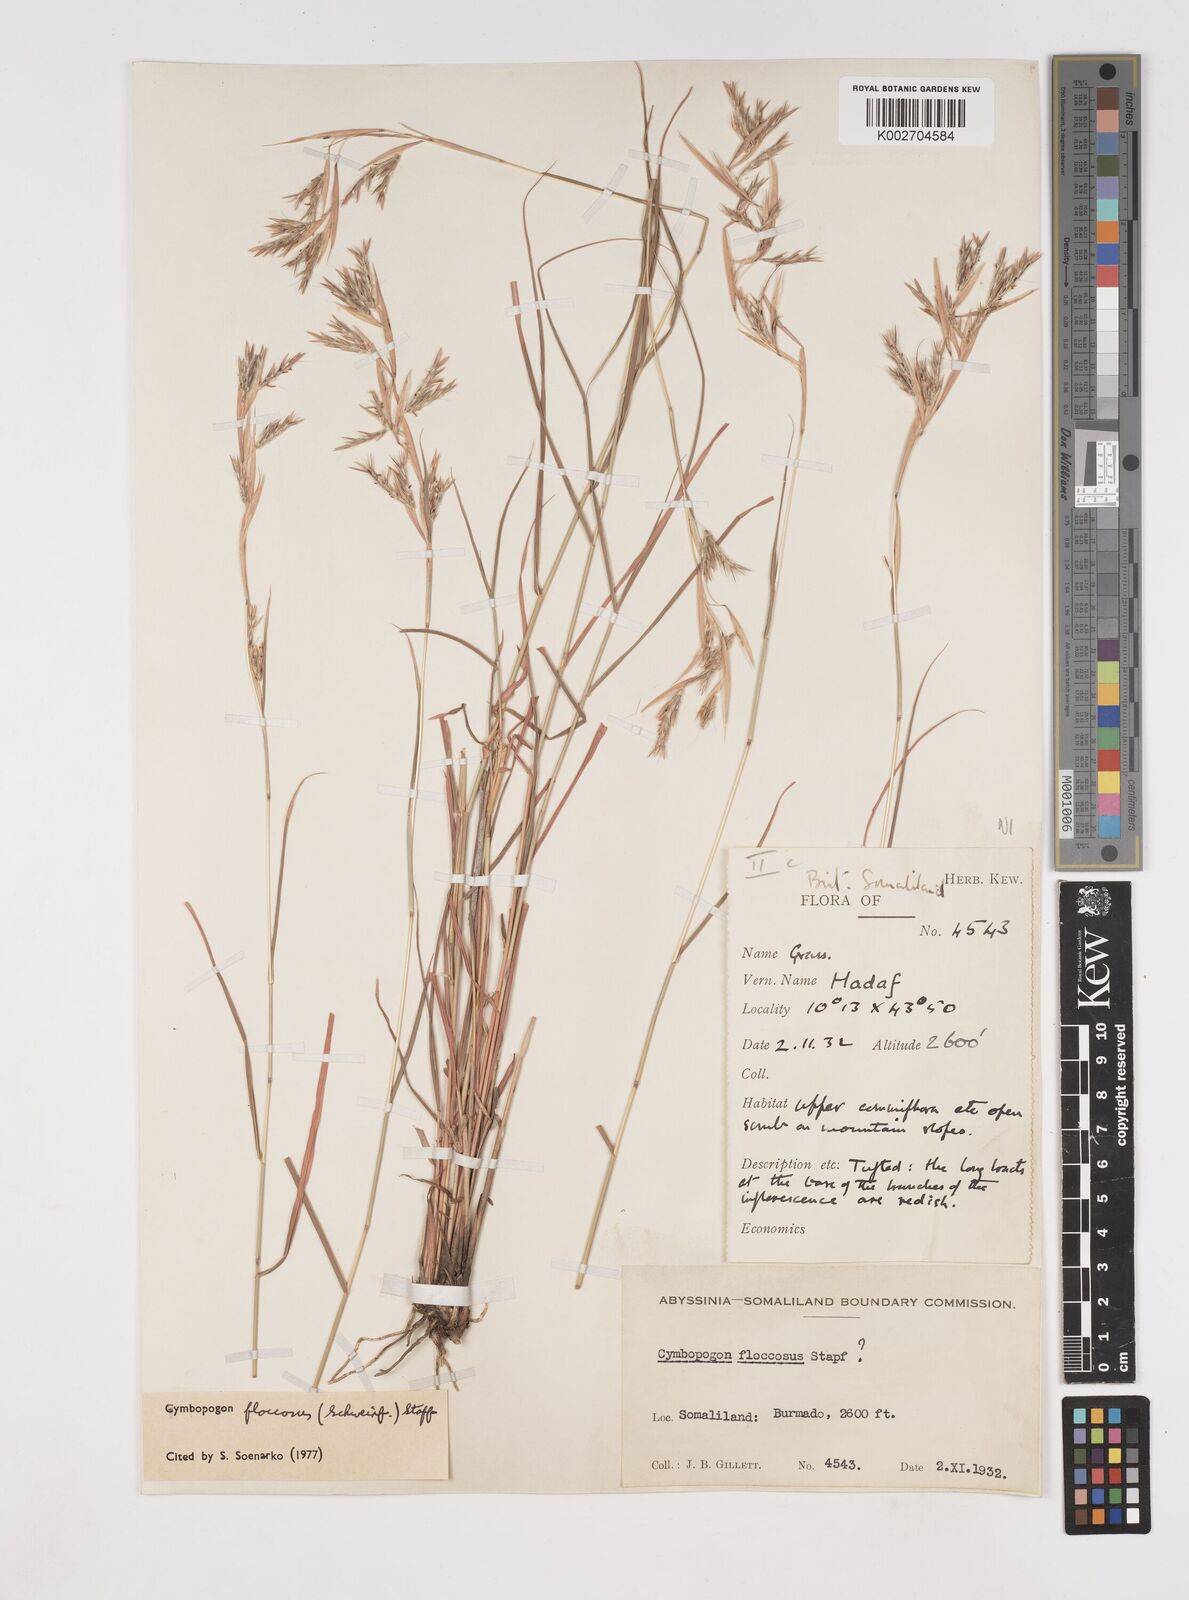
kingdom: Plantae
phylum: Tracheophyta
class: Liliopsida
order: Poales
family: Poaceae
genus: Cymbopogon
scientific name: Cymbopogon commutatus
